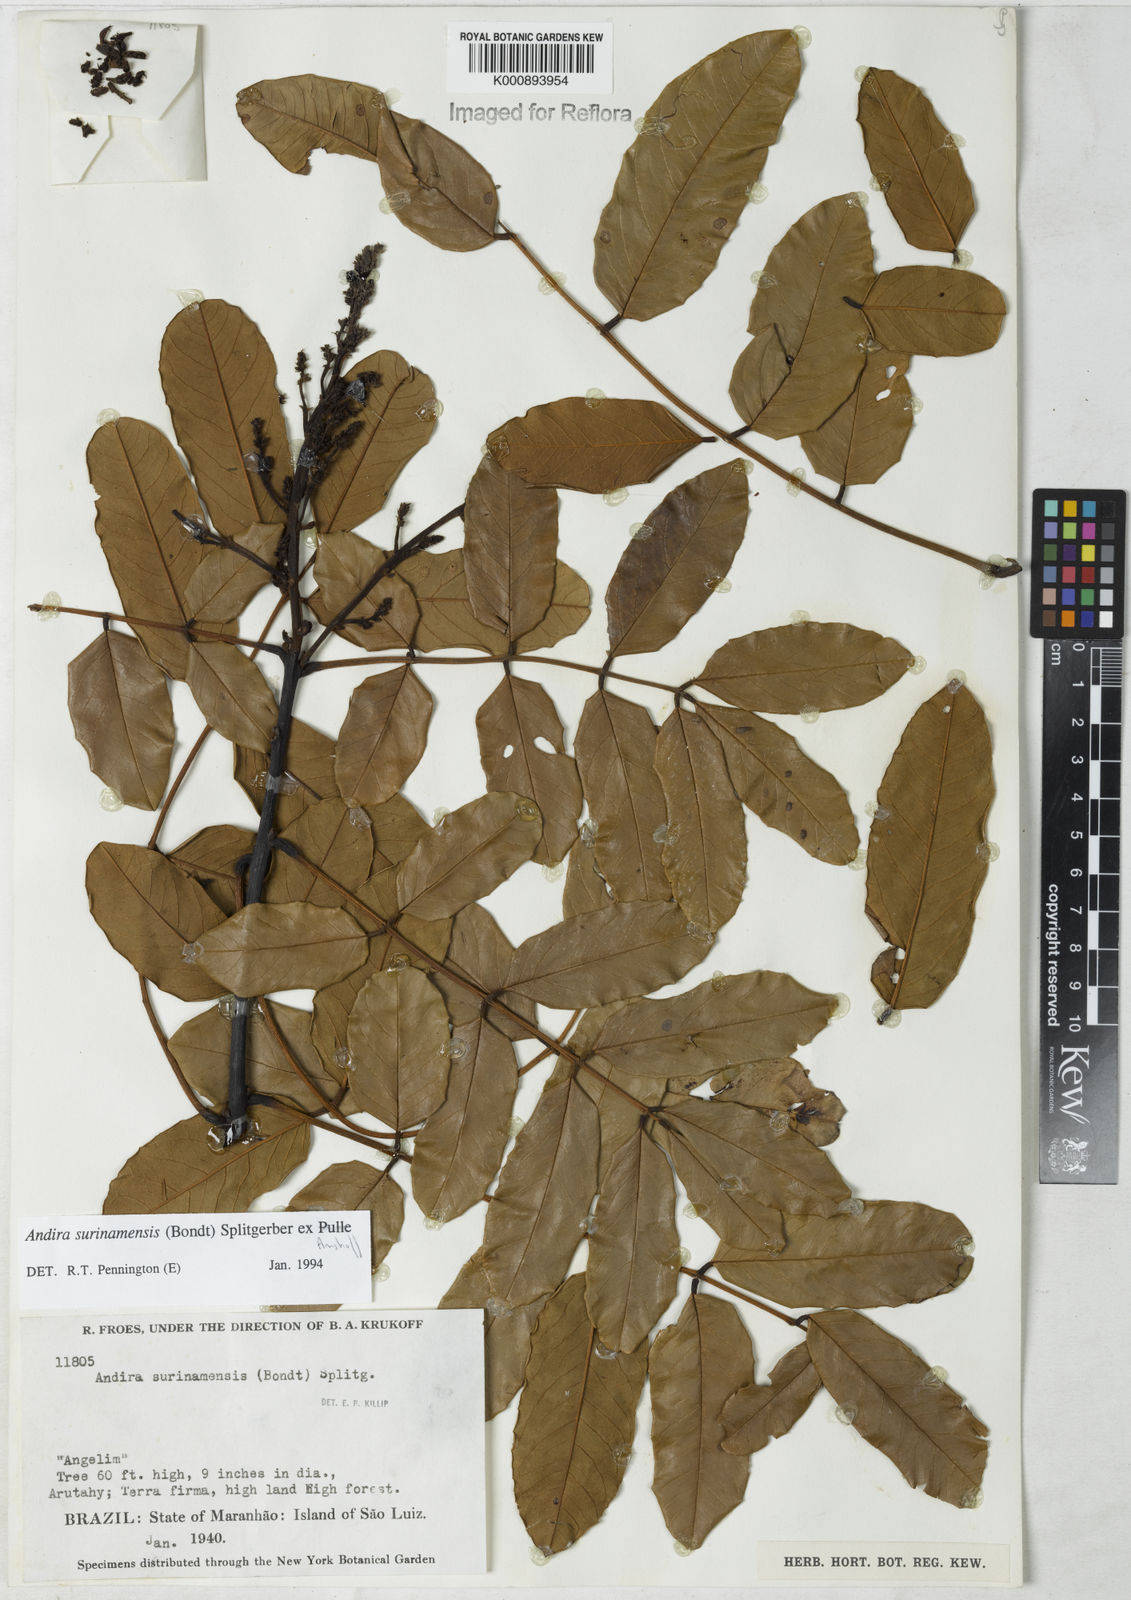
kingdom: Plantae
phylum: Tracheophyta
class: Magnoliopsida
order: Fabales
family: Fabaceae
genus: Andira
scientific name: Andira
